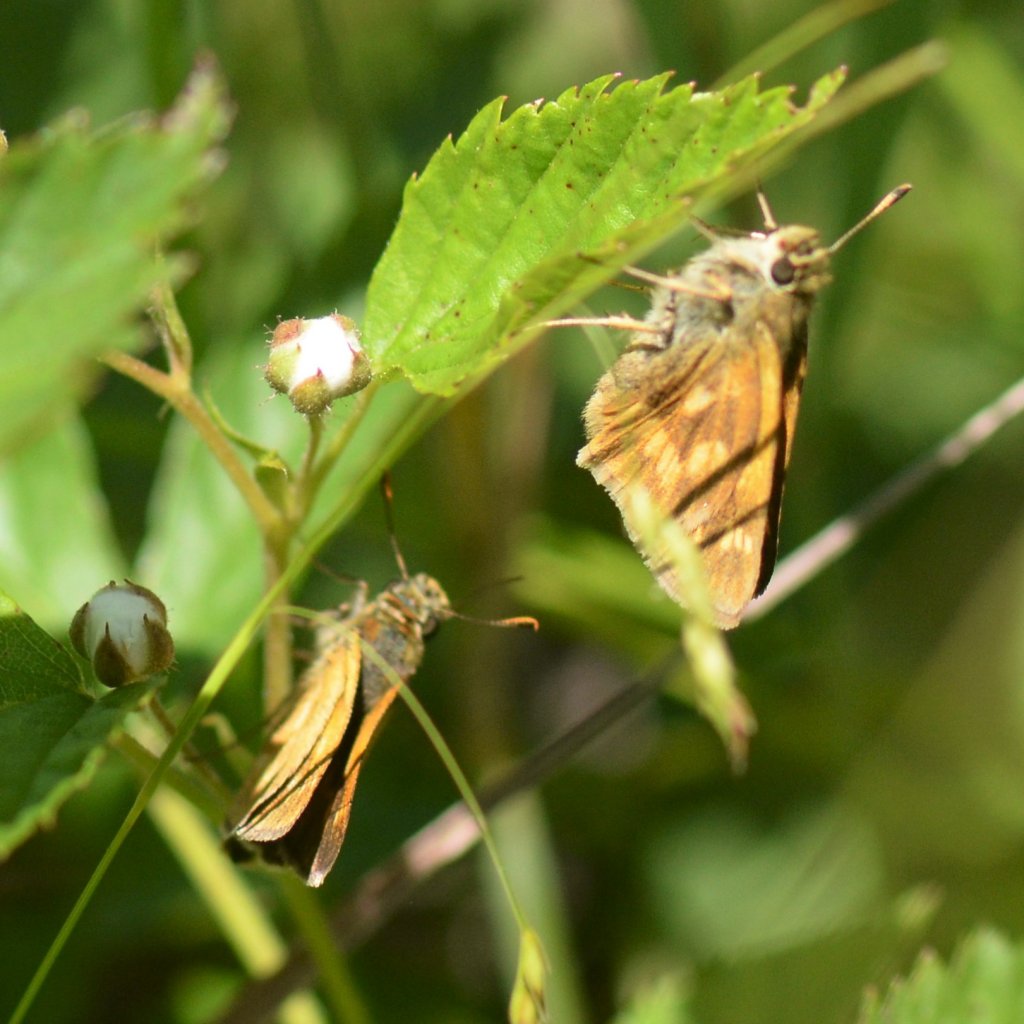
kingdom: Animalia
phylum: Arthropoda
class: Insecta
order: Lepidoptera
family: Hesperiidae
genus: Polites
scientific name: Polites
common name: Long Dash Skipper
